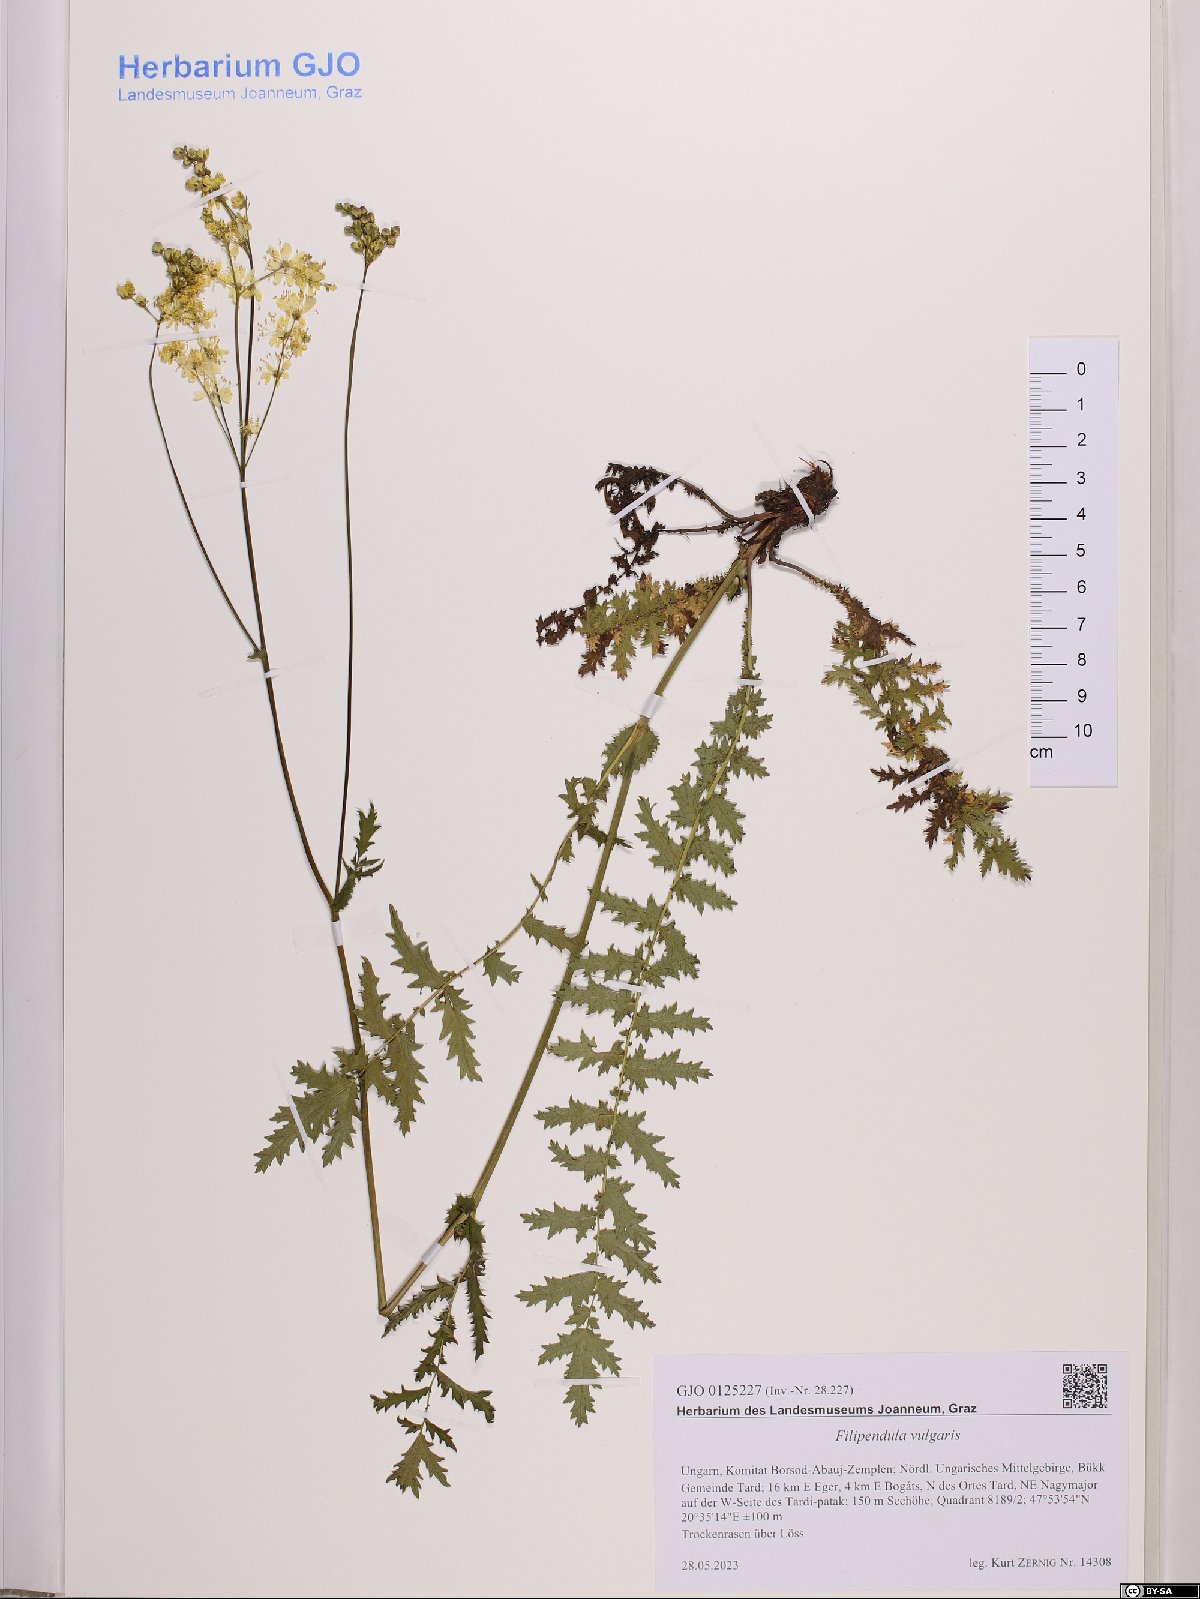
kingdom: Plantae
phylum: Tracheophyta
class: Magnoliopsida
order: Rosales
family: Rosaceae
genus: Filipendula
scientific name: Filipendula vulgaris
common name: Dropwort
